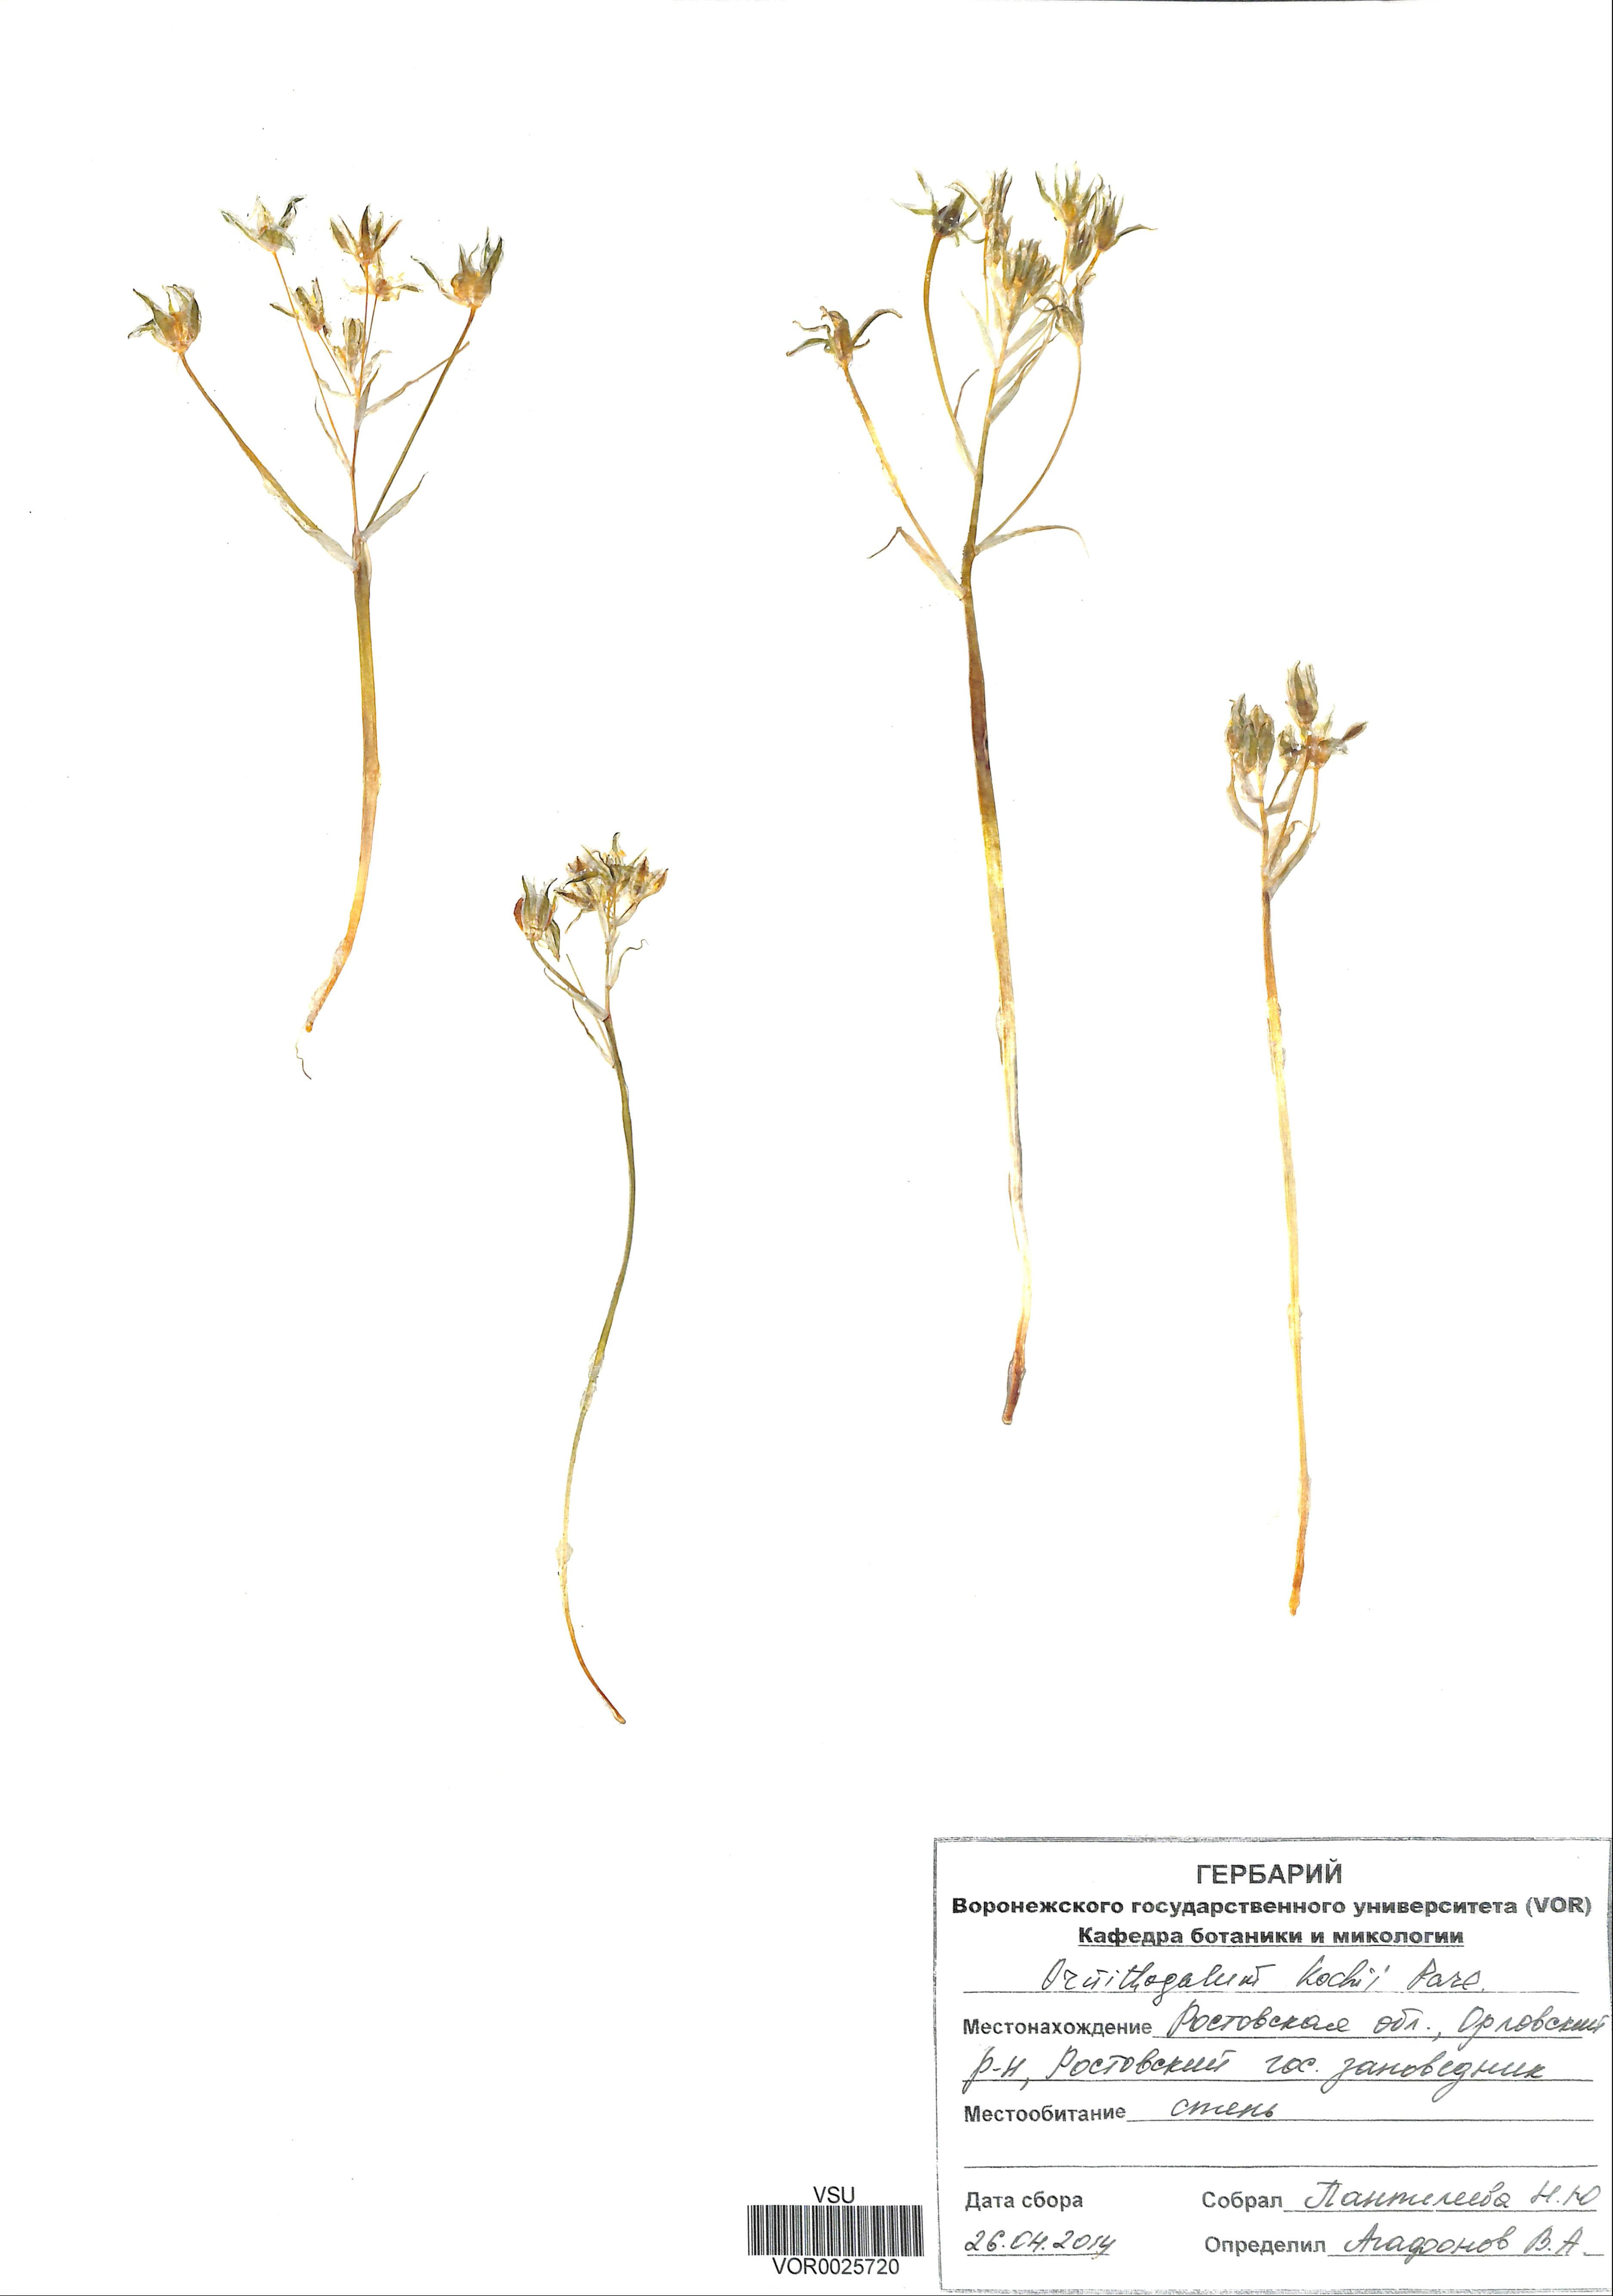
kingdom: Plantae
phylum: Tracheophyta
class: Liliopsida
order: Asparagales
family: Asparagaceae
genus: Ornithogalum
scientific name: Ornithogalum orthophyllum
